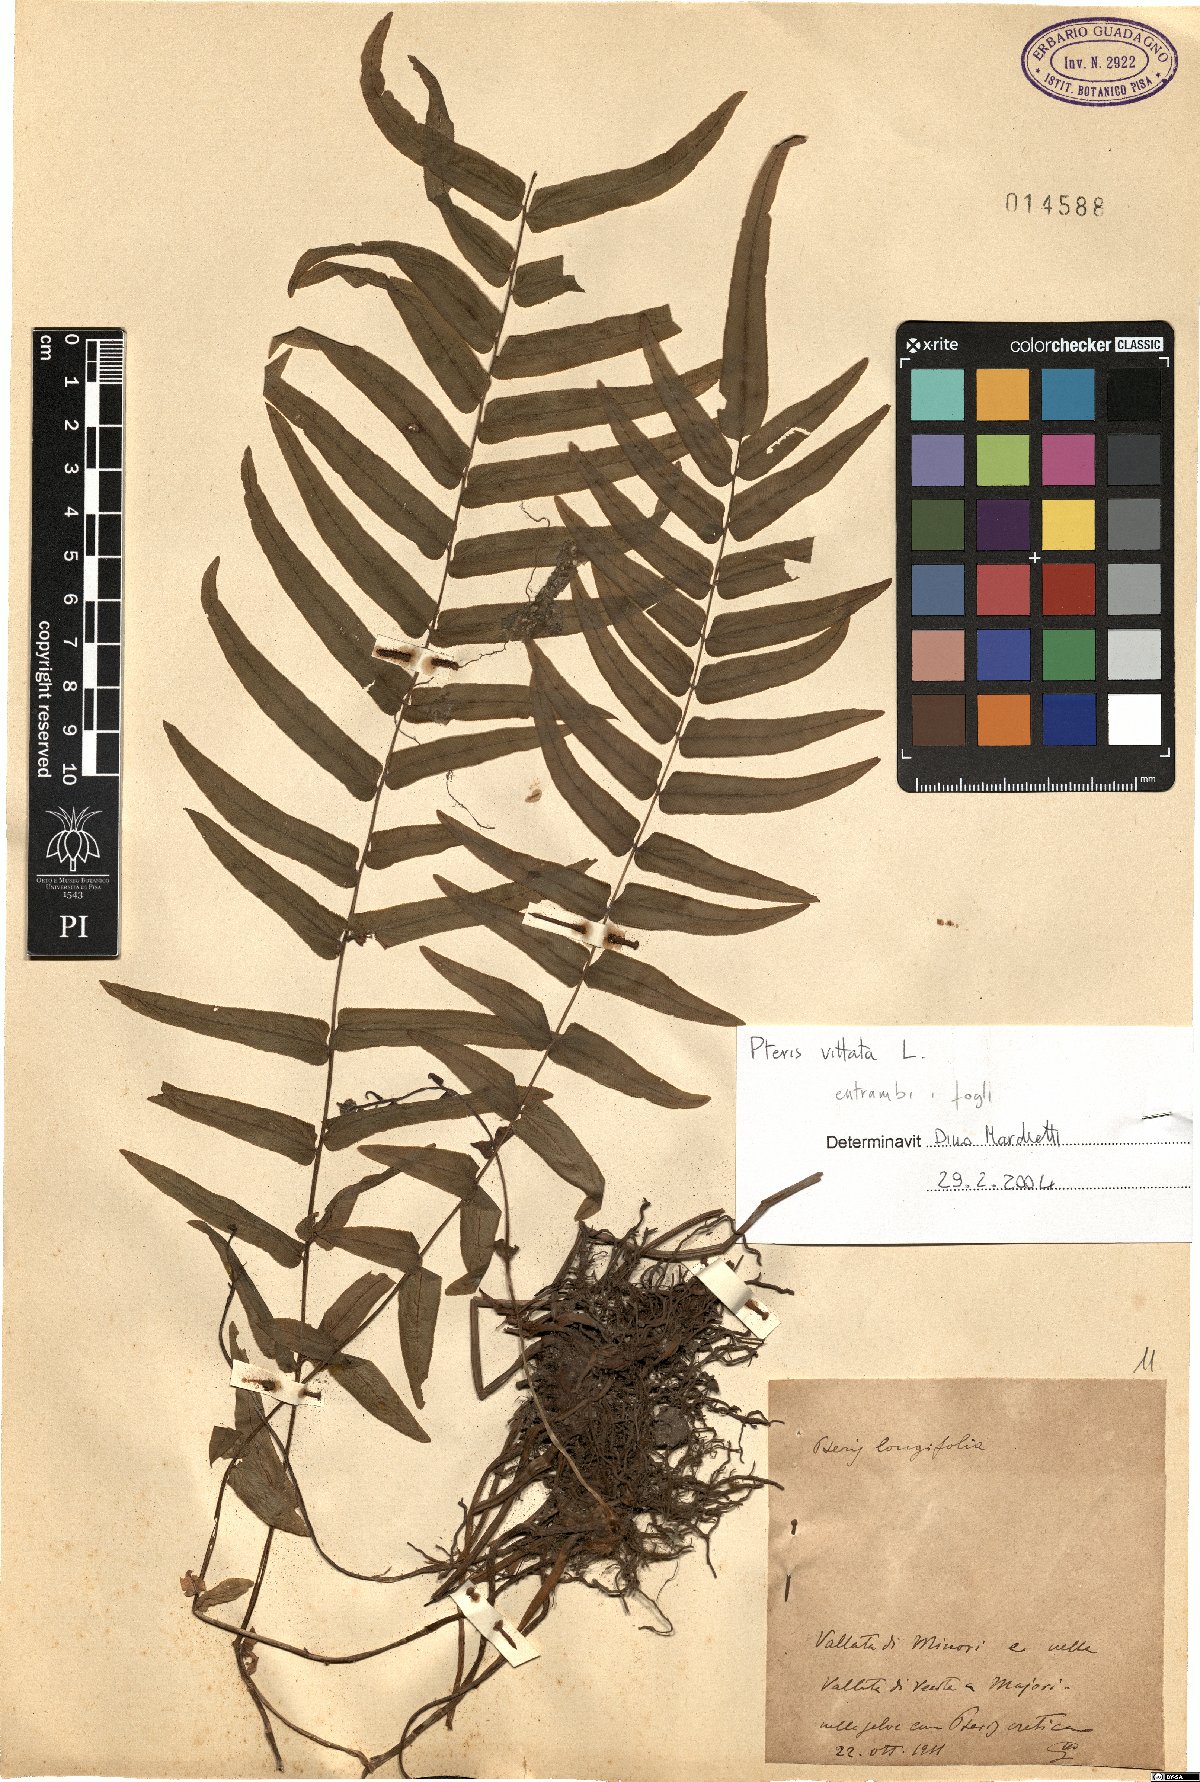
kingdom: Plantae
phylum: Tracheophyta
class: Polypodiopsida
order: Polypodiales
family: Pteridaceae
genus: Pteris
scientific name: Pteris vittata
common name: Ladder brake
